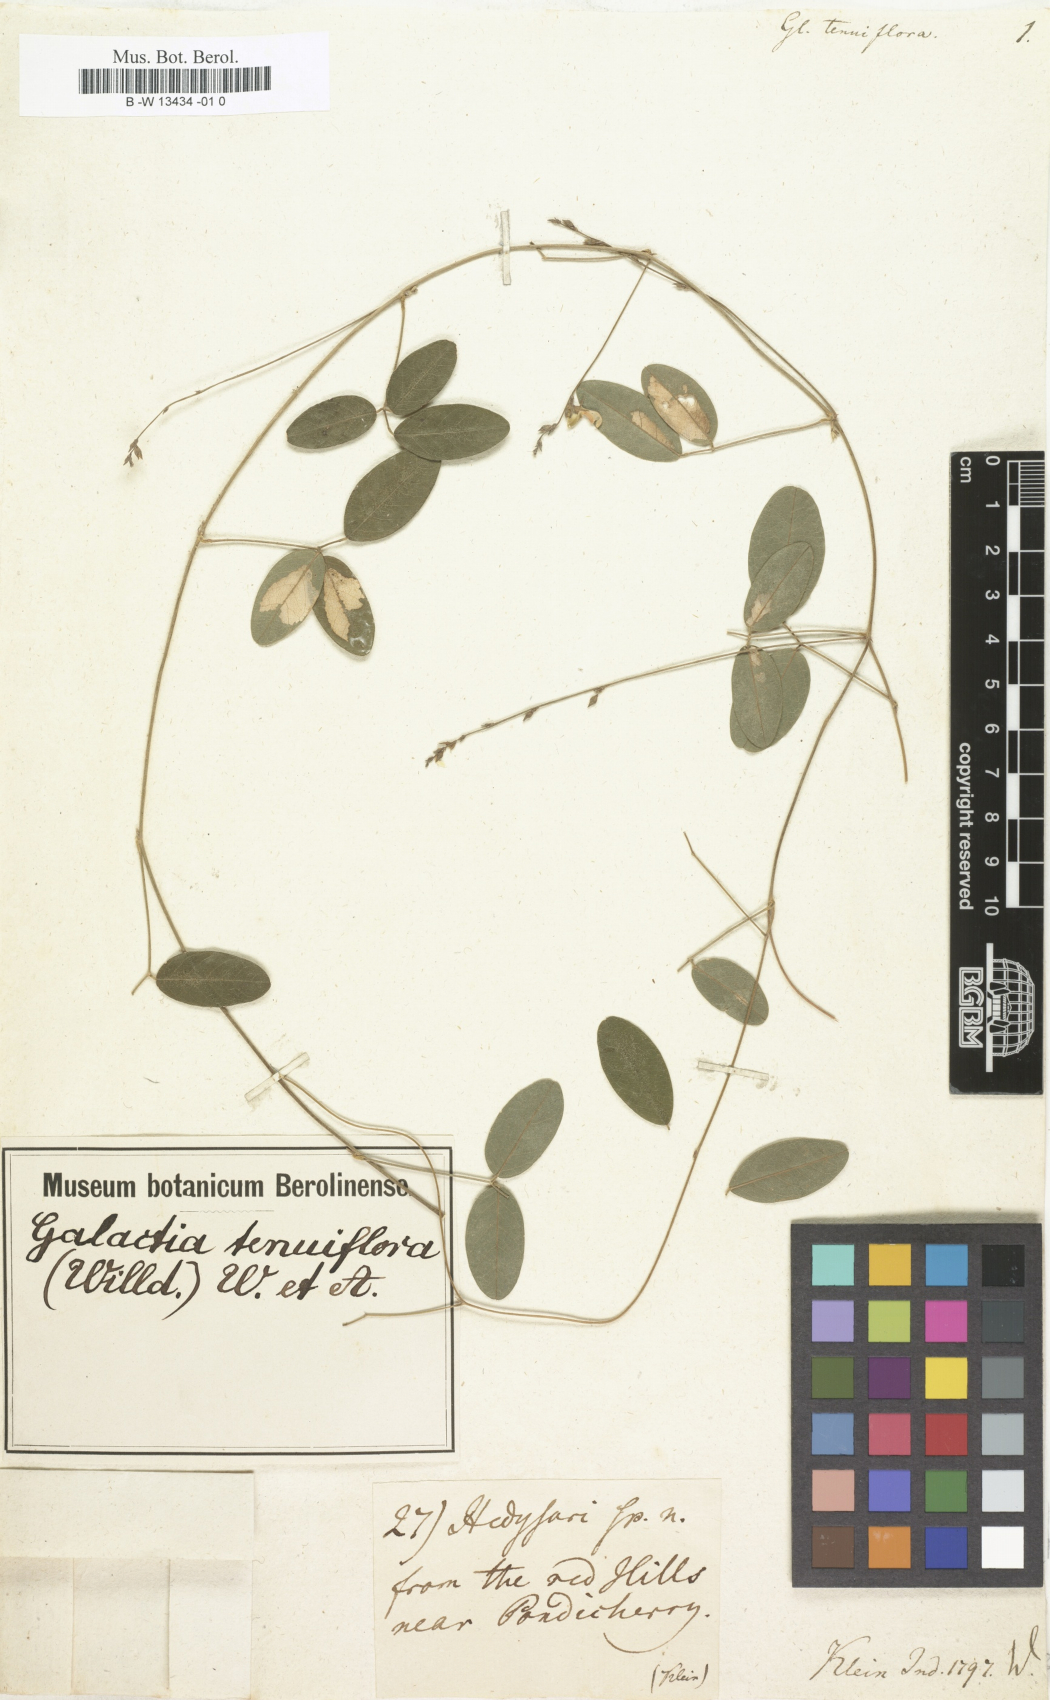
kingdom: Plantae
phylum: Tracheophyta
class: Magnoliopsida
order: Fabales
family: Fabaceae
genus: Galactia
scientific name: Galactia striata
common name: Florida hammock milkpea
